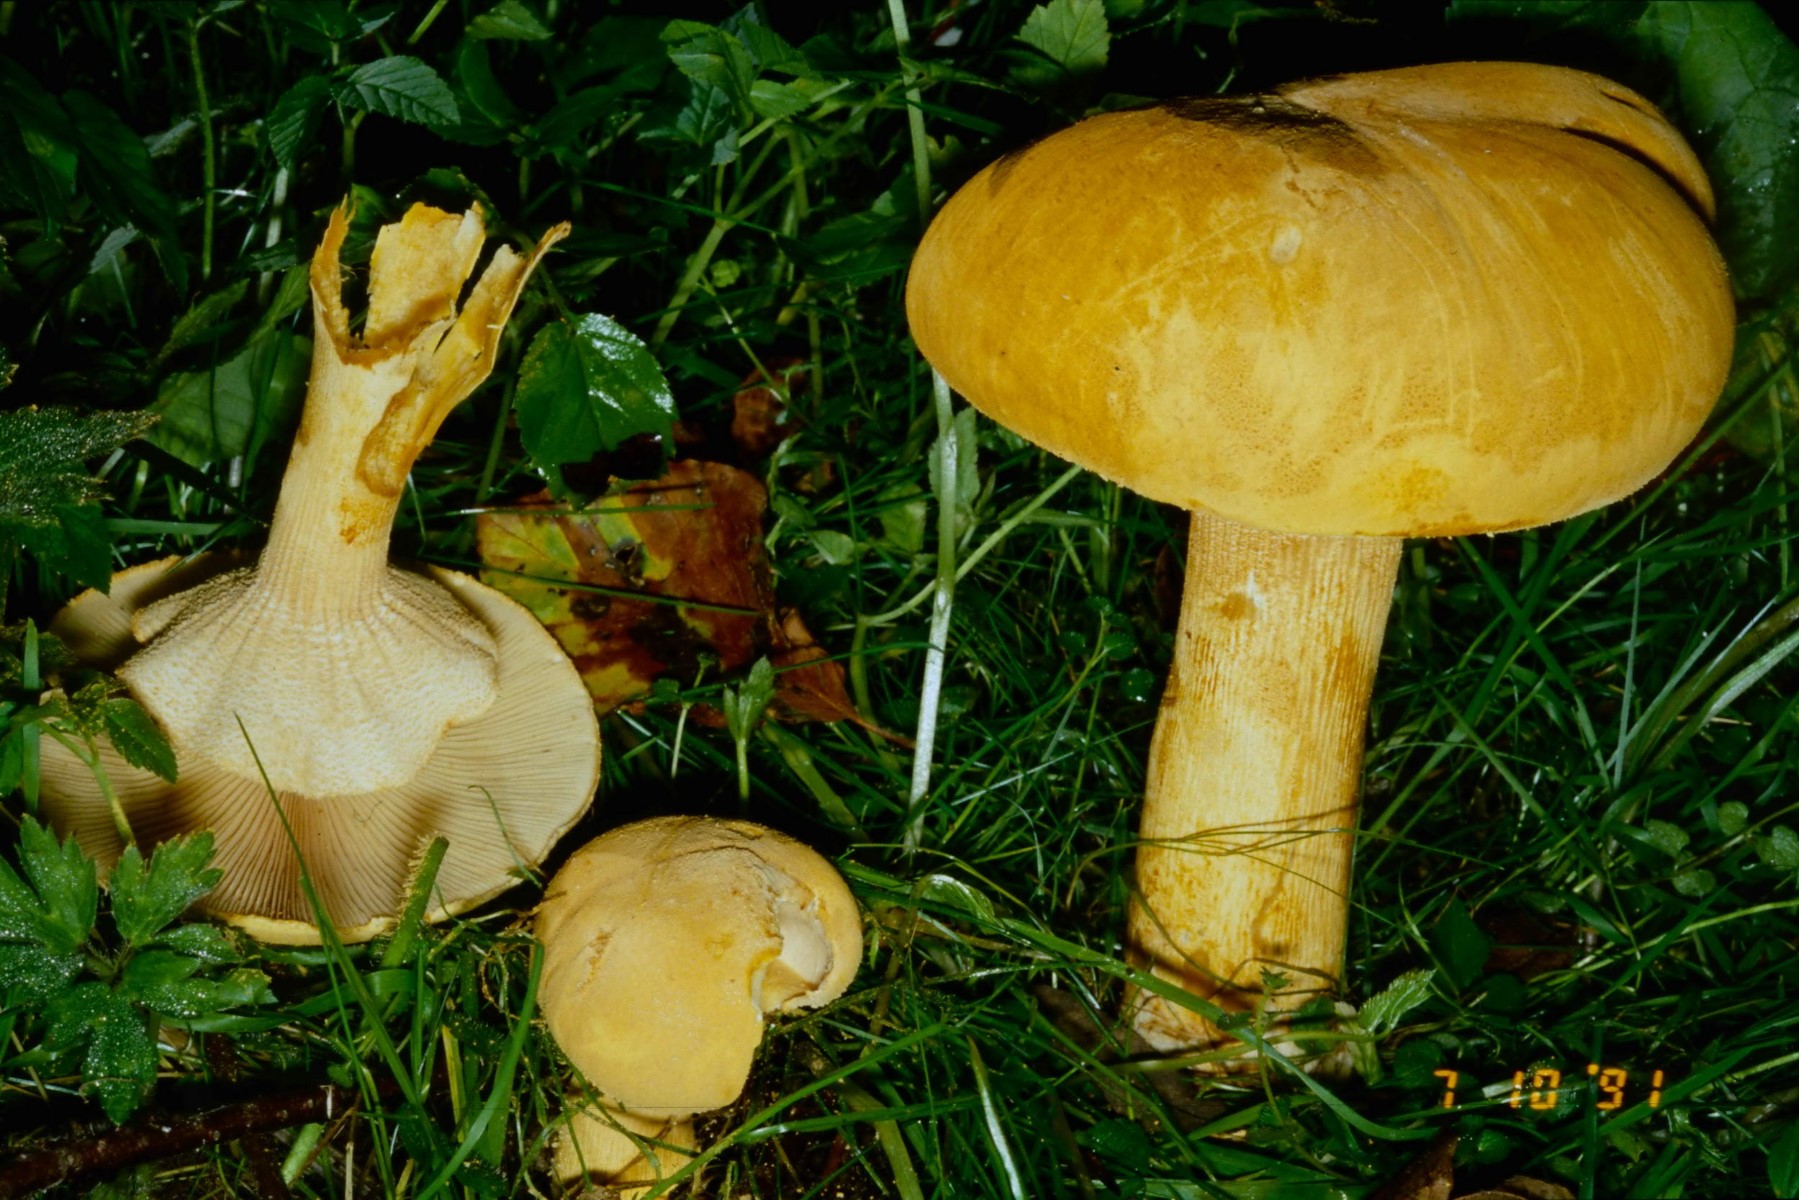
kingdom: Fungi
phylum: Basidiomycota
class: Agaricomycetes
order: Agaricales
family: Tricholomataceae
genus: Phaeolepiota
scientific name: Phaeolepiota aurea
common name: gyldenhat
